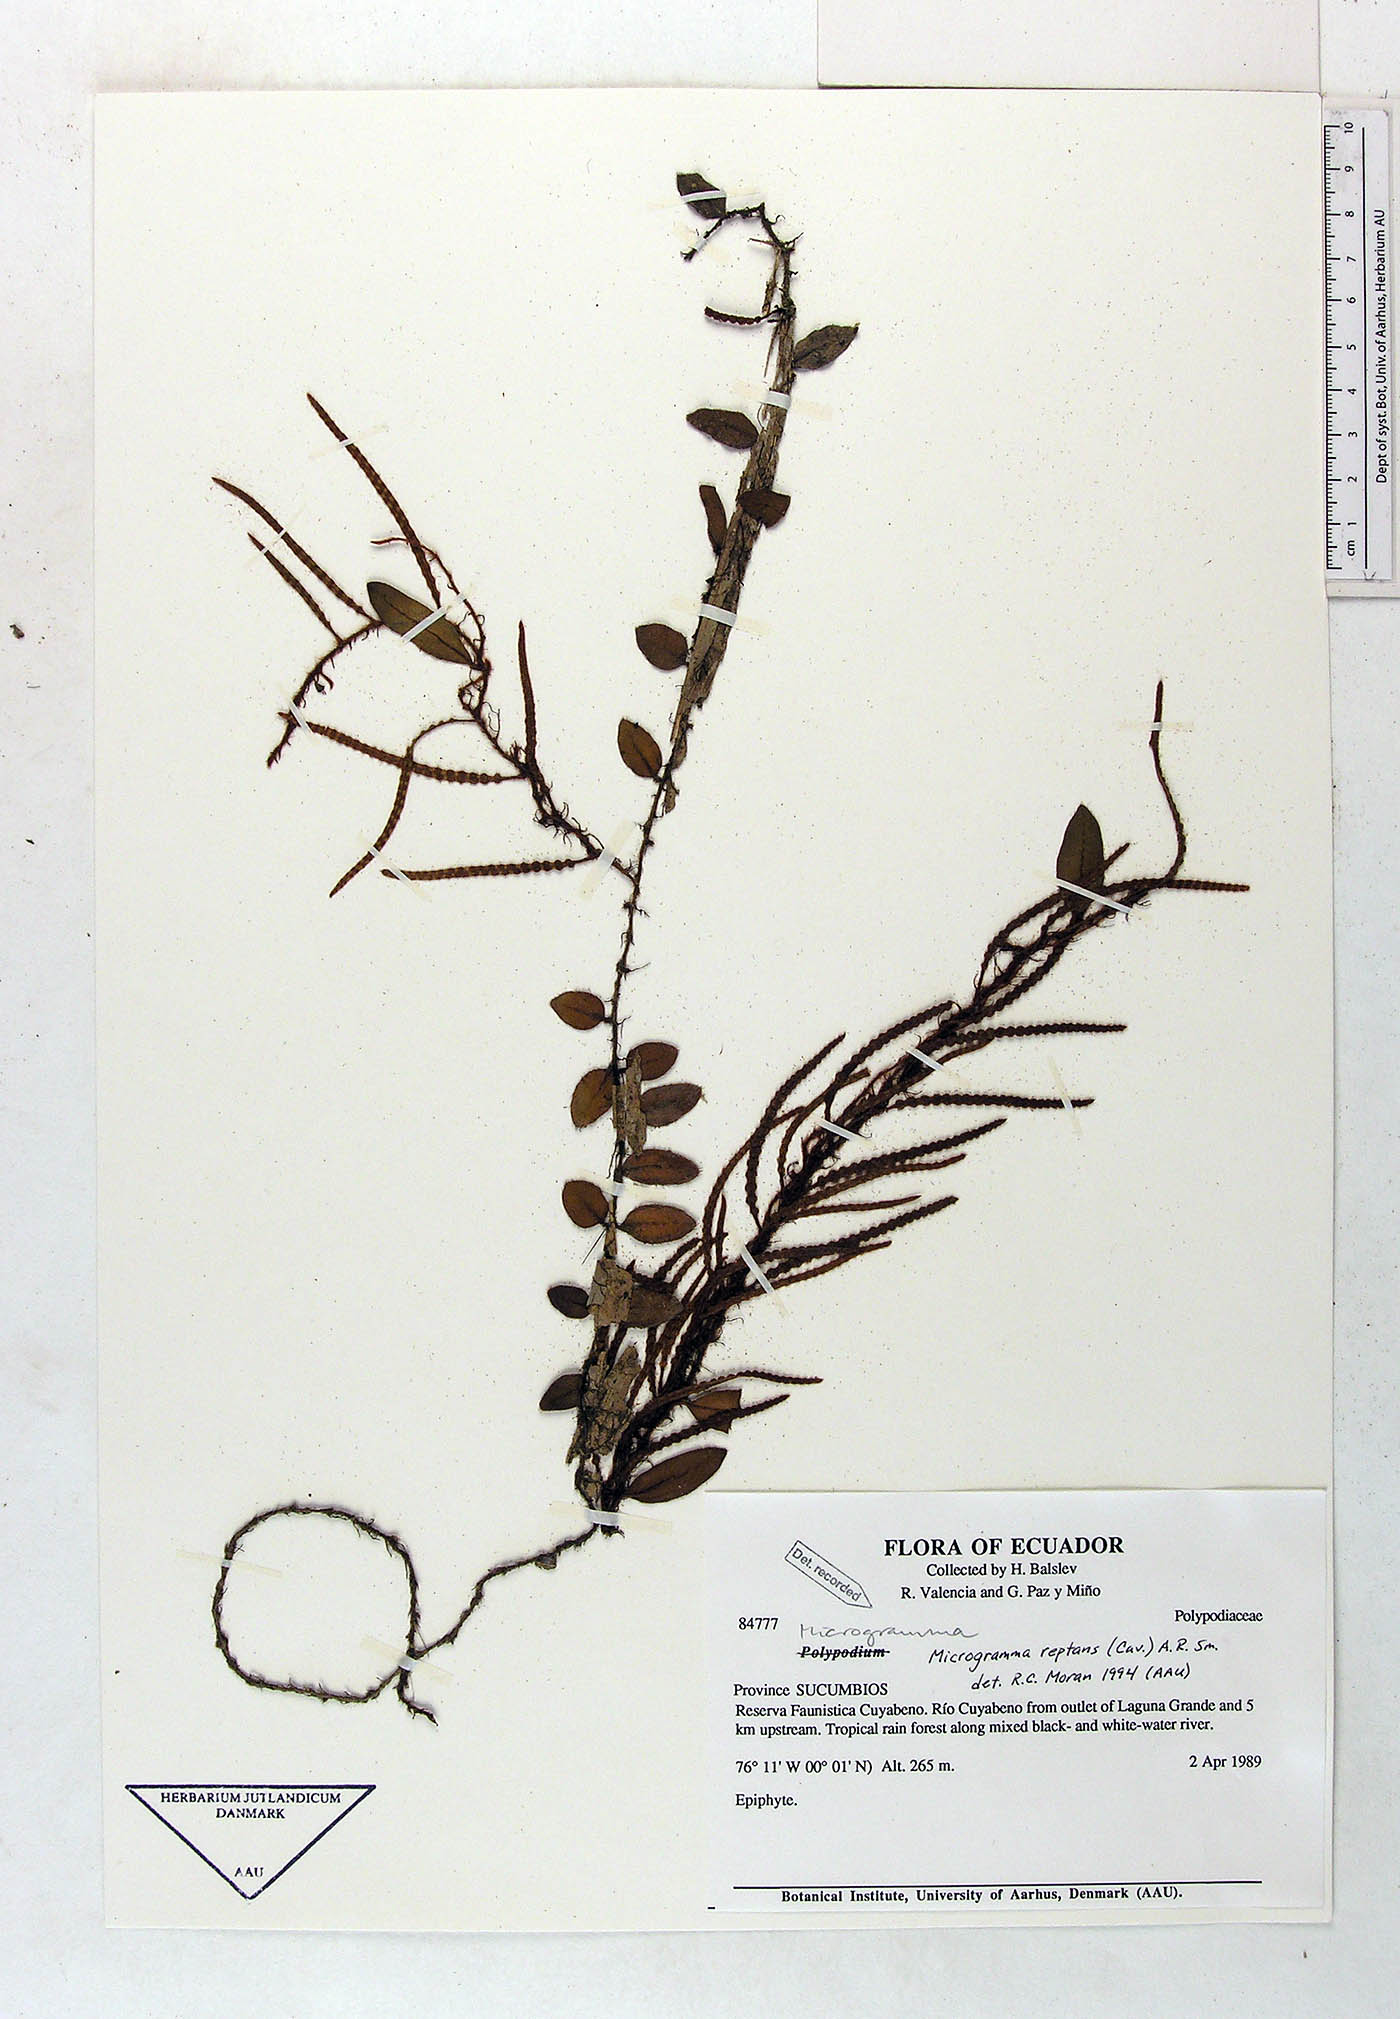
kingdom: Plantae
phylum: Tracheophyta
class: Polypodiopsida
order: Polypodiales
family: Polypodiaceae
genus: Microgramma
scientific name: Microgramma reptans
